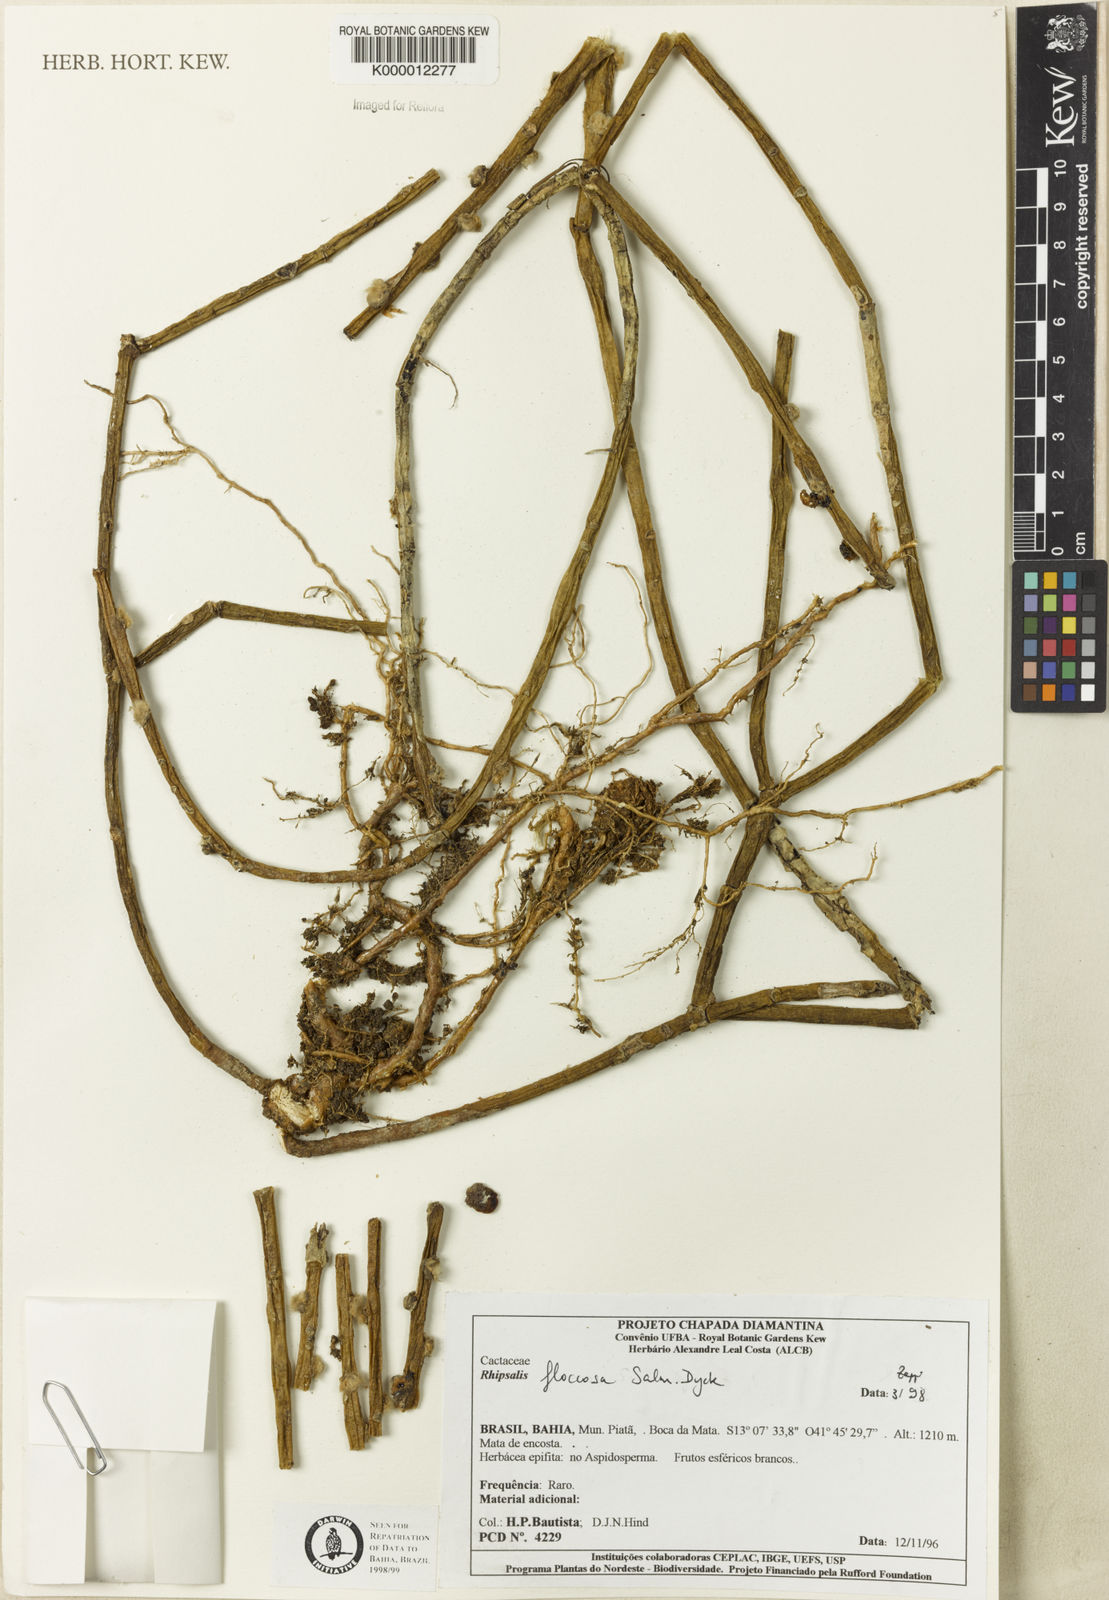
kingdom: Plantae
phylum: Tracheophyta
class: Magnoliopsida
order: Caryophyllales
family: Cactaceae
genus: Rhipsalis
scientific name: Rhipsalis
